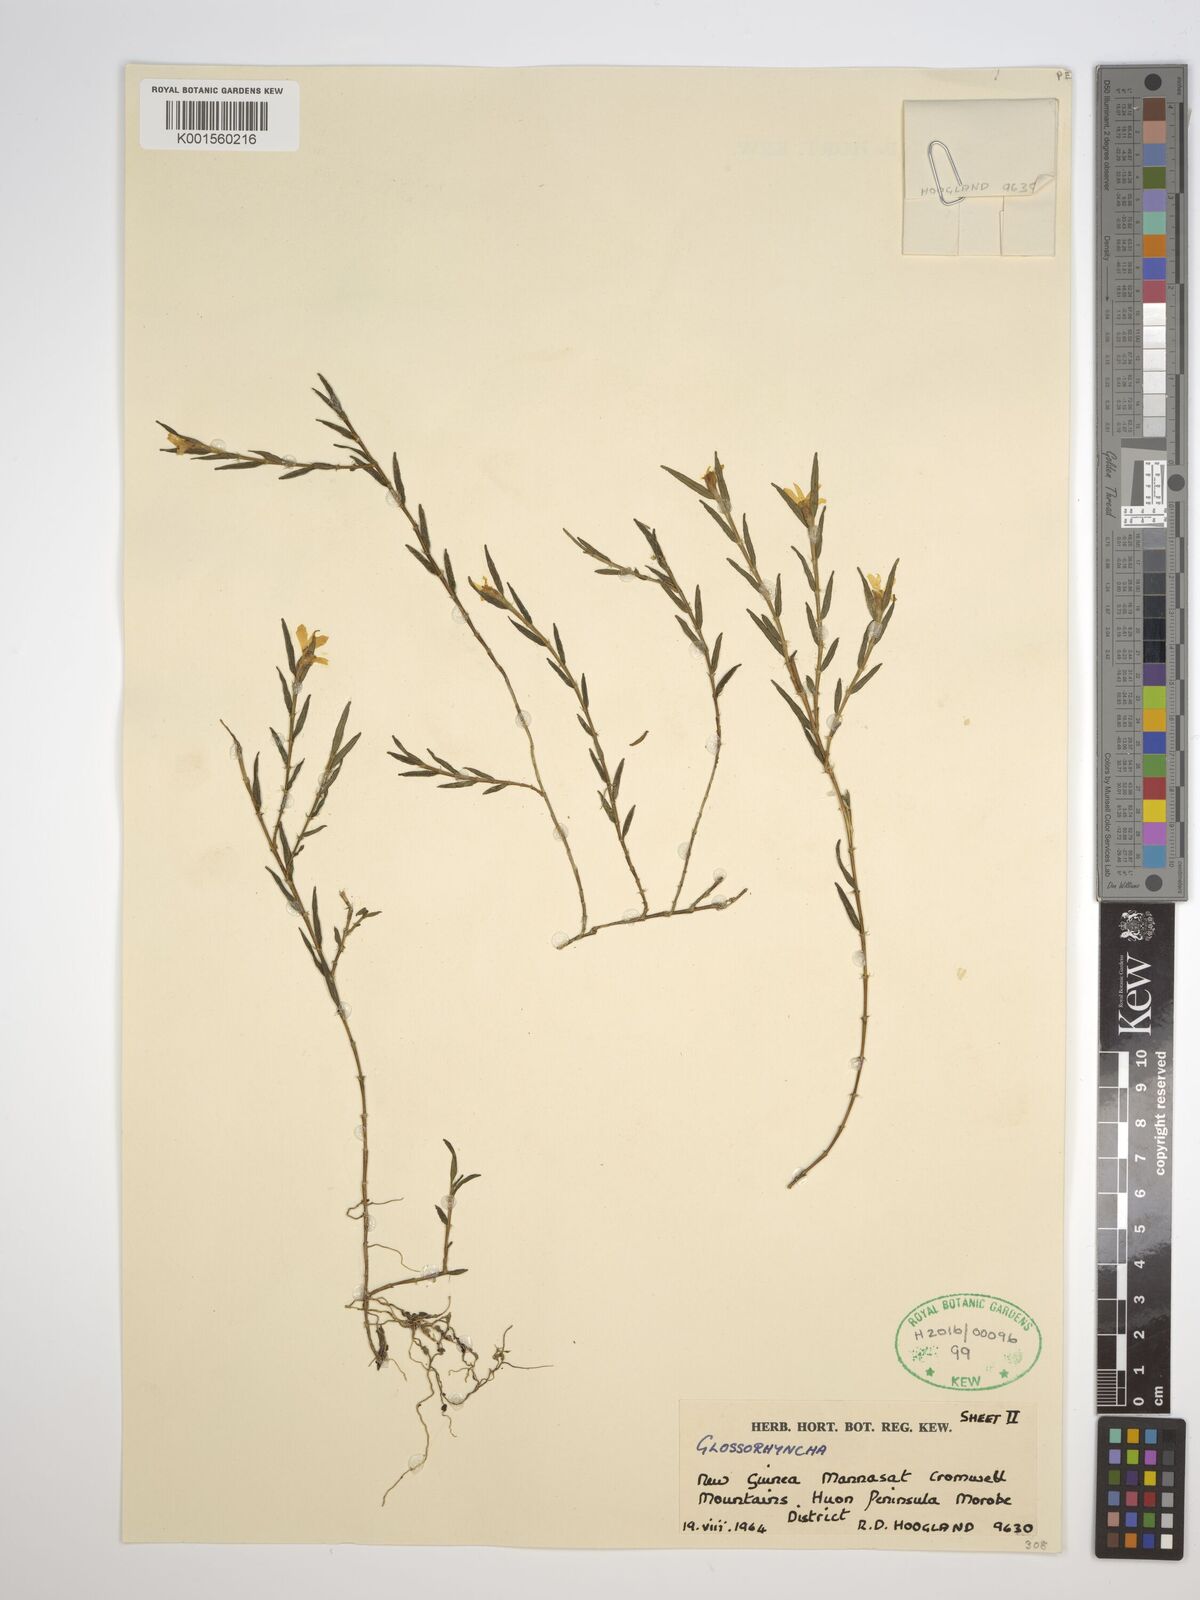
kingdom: Plantae
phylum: Tracheophyta
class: Liliopsida
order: Asparagales
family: Orchidaceae
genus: Glomera
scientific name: Glomera
